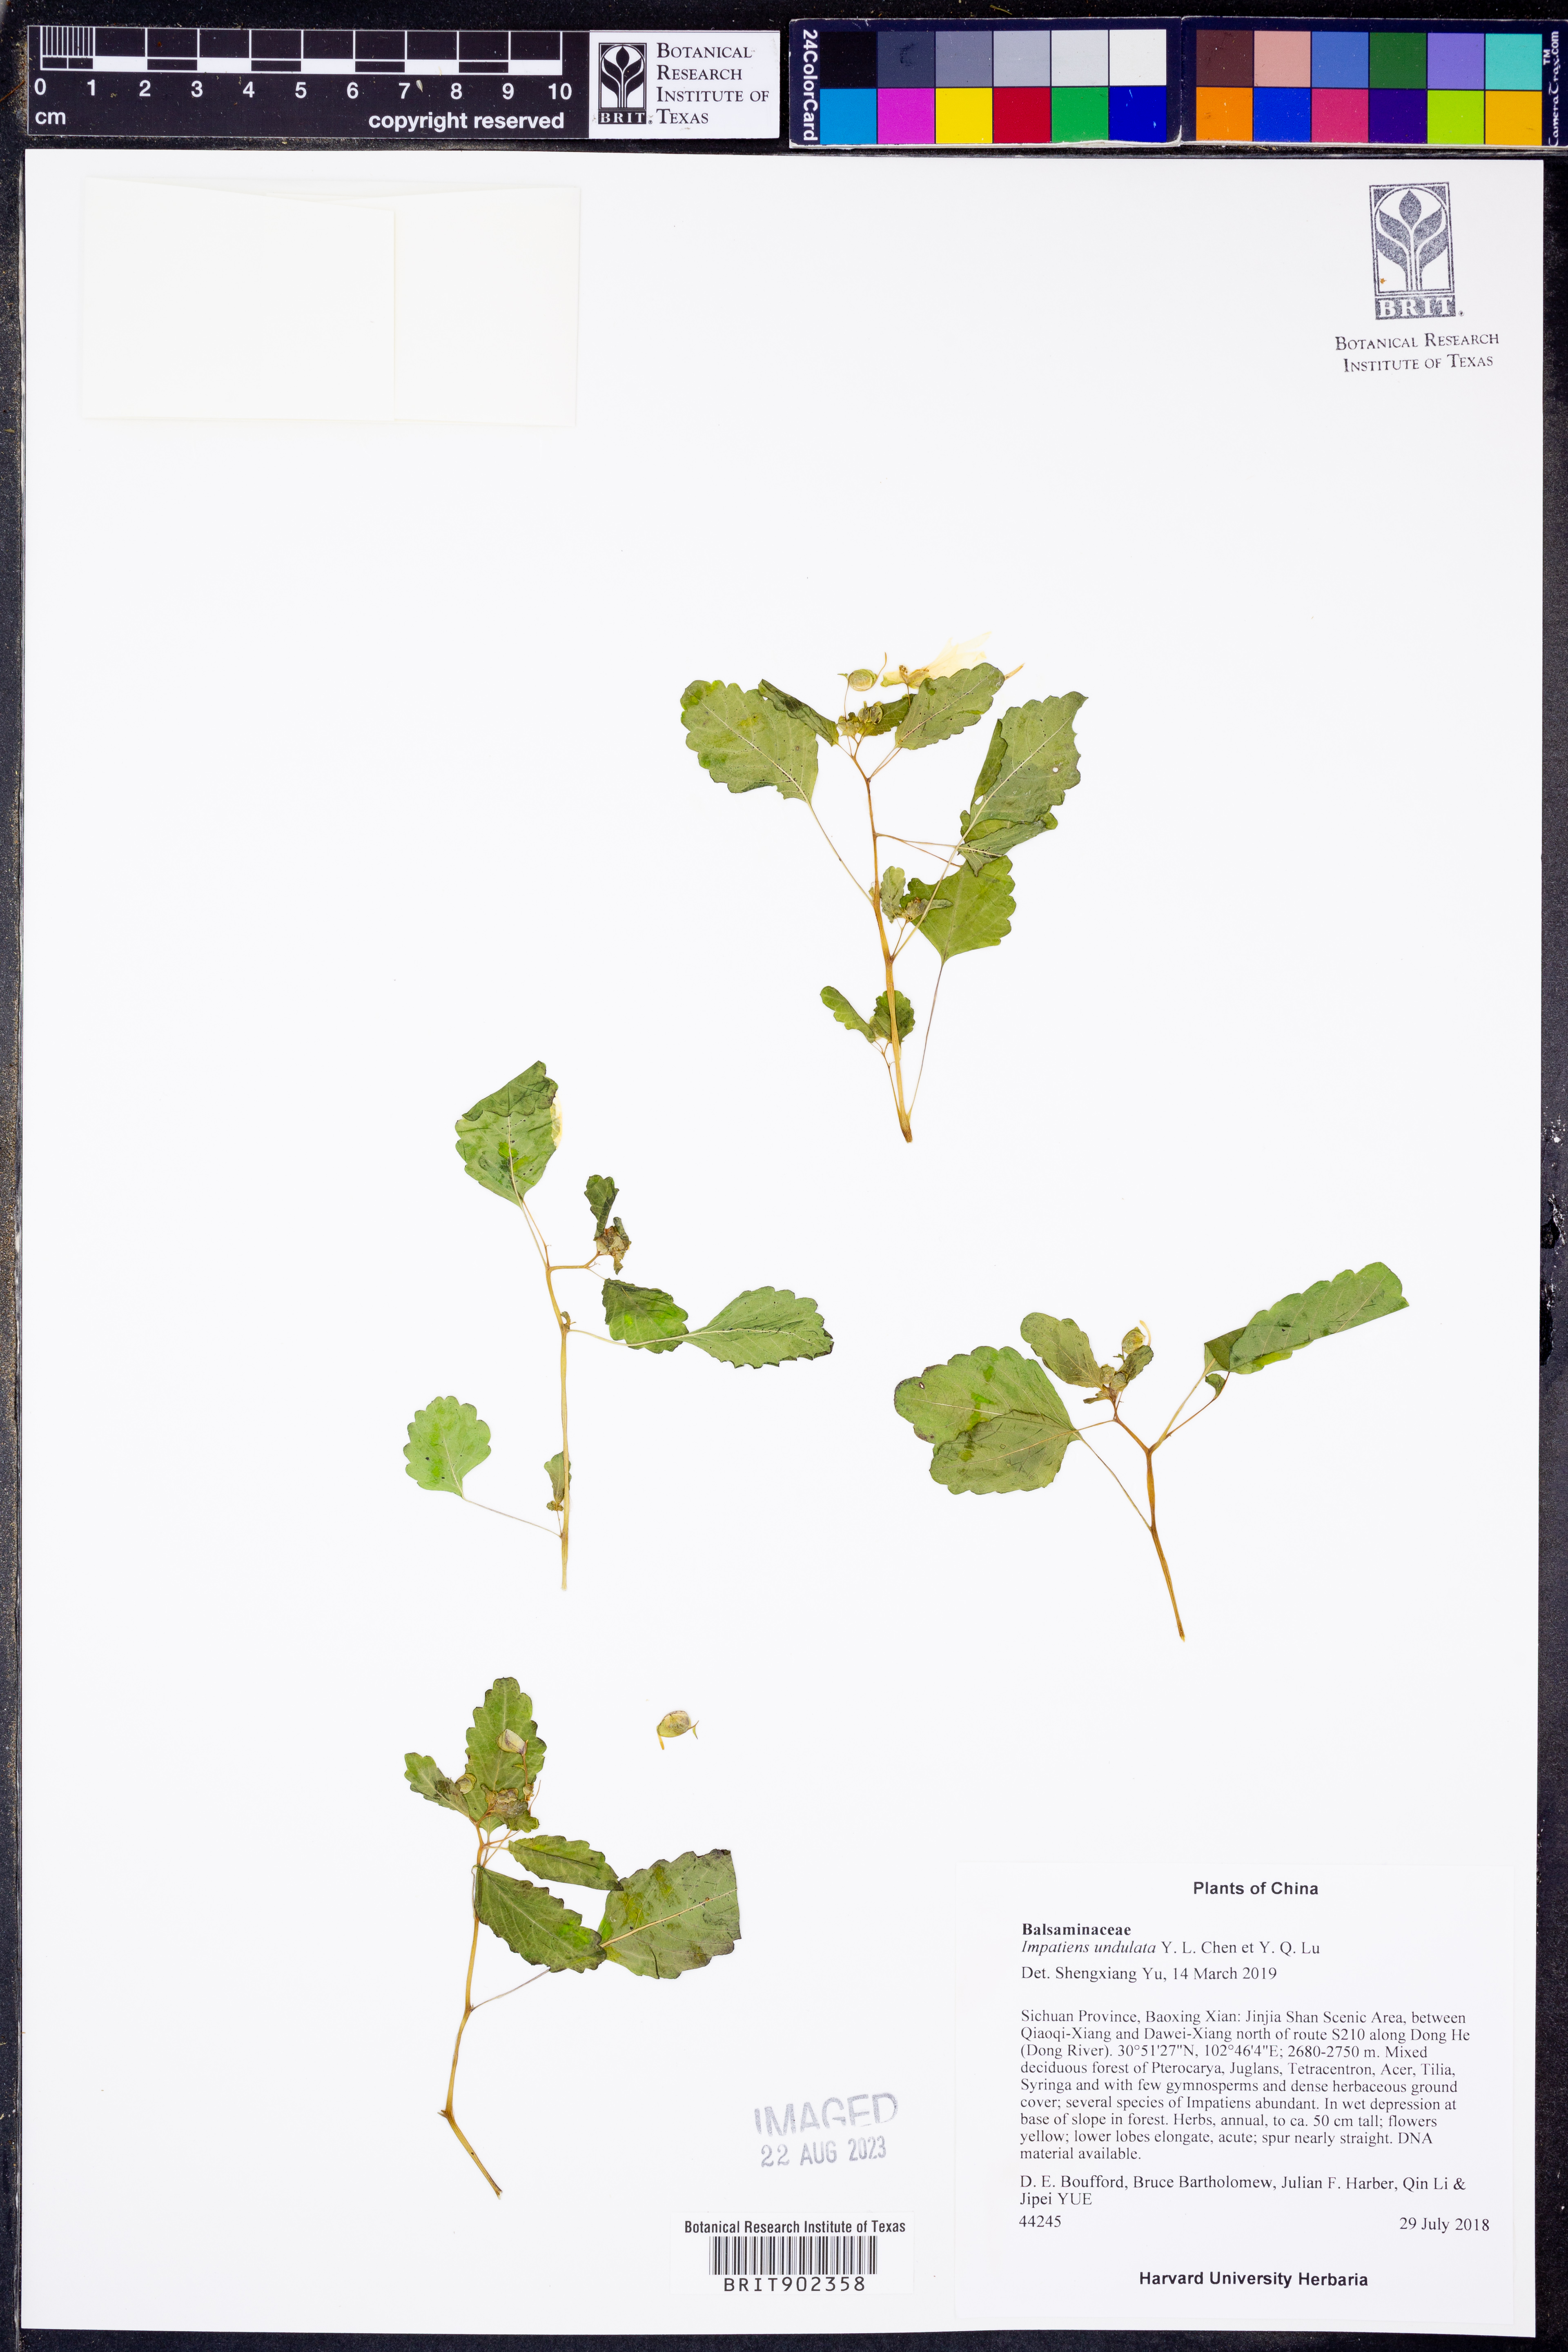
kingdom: Plantae
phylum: Tracheophyta
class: Magnoliopsida
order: Ericales
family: Balsaminaceae
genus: Impatiens
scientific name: Impatiens ulugurensis
